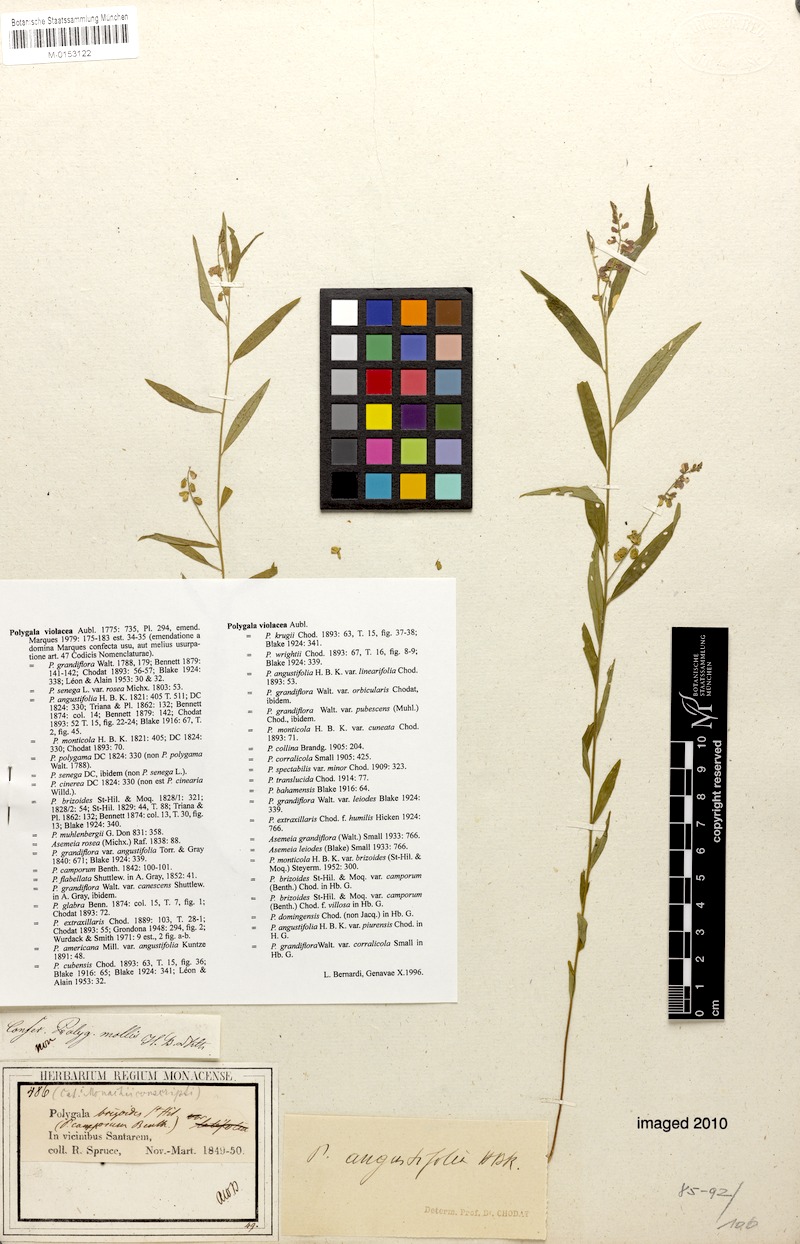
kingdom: Plantae
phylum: Tracheophyta
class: Magnoliopsida
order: Fabales
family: Polygalaceae
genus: Asemeia
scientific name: Asemeia violacea
